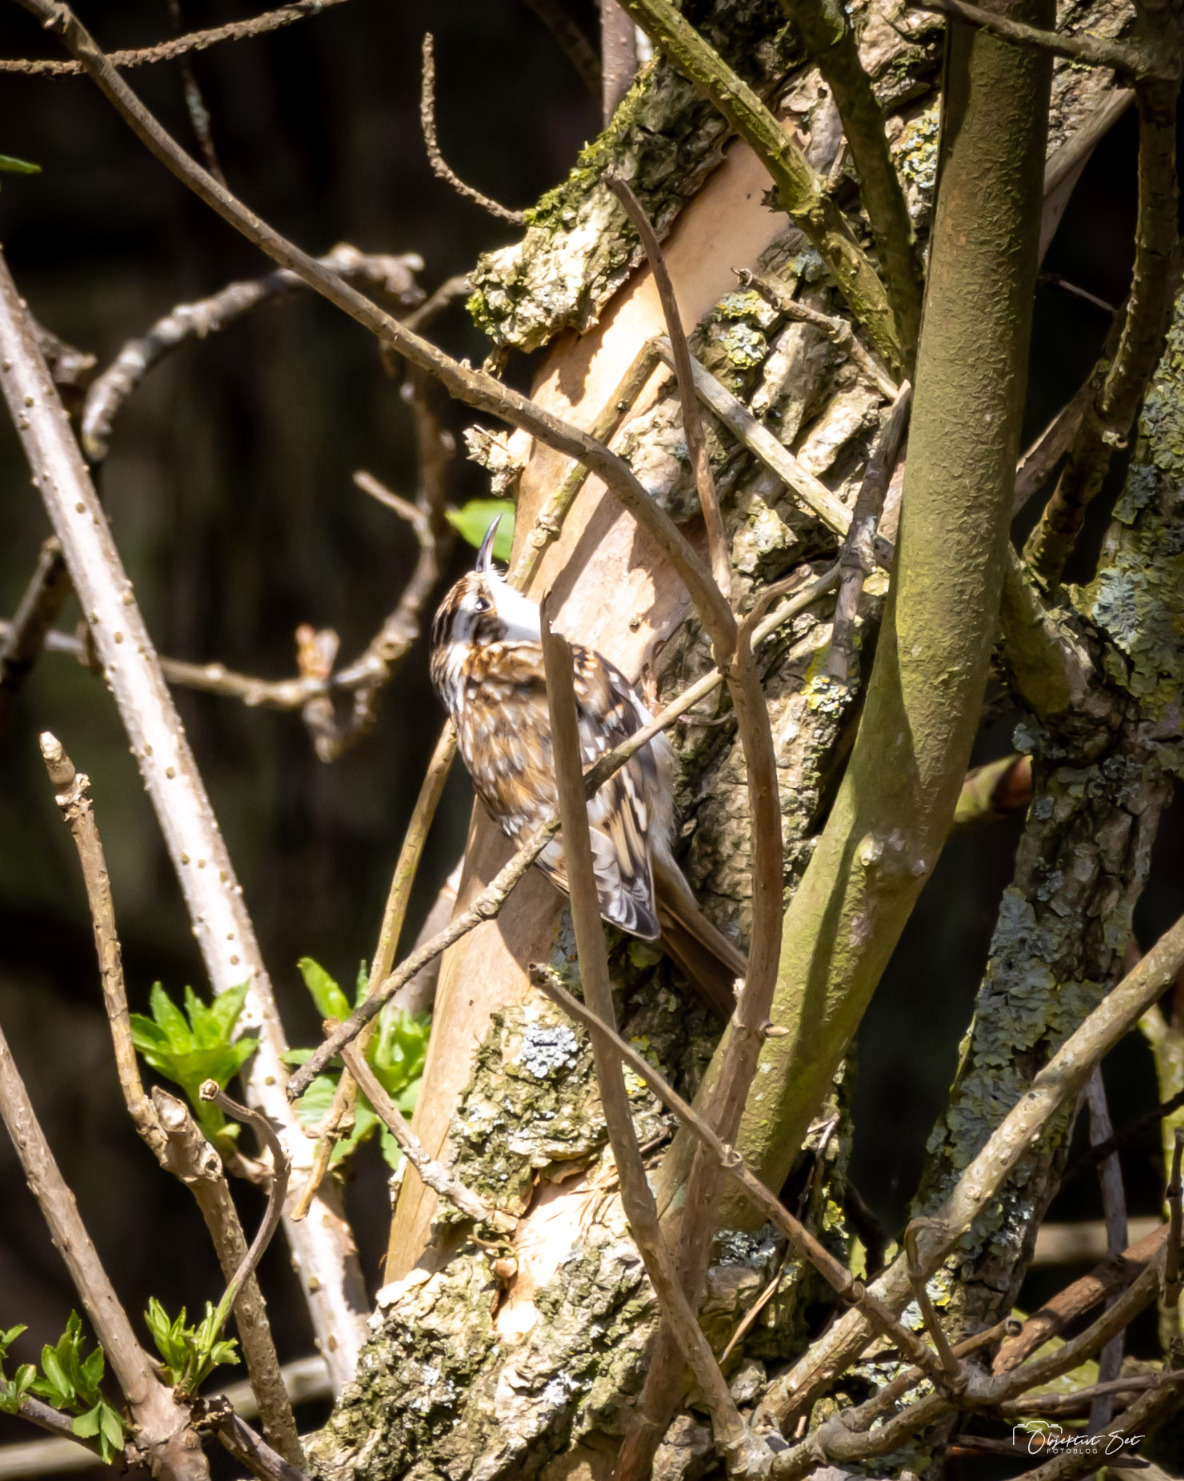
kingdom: Animalia
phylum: Chordata
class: Aves
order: Passeriformes
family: Certhiidae
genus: Certhia
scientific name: Certhia familiaris
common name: Træløber
